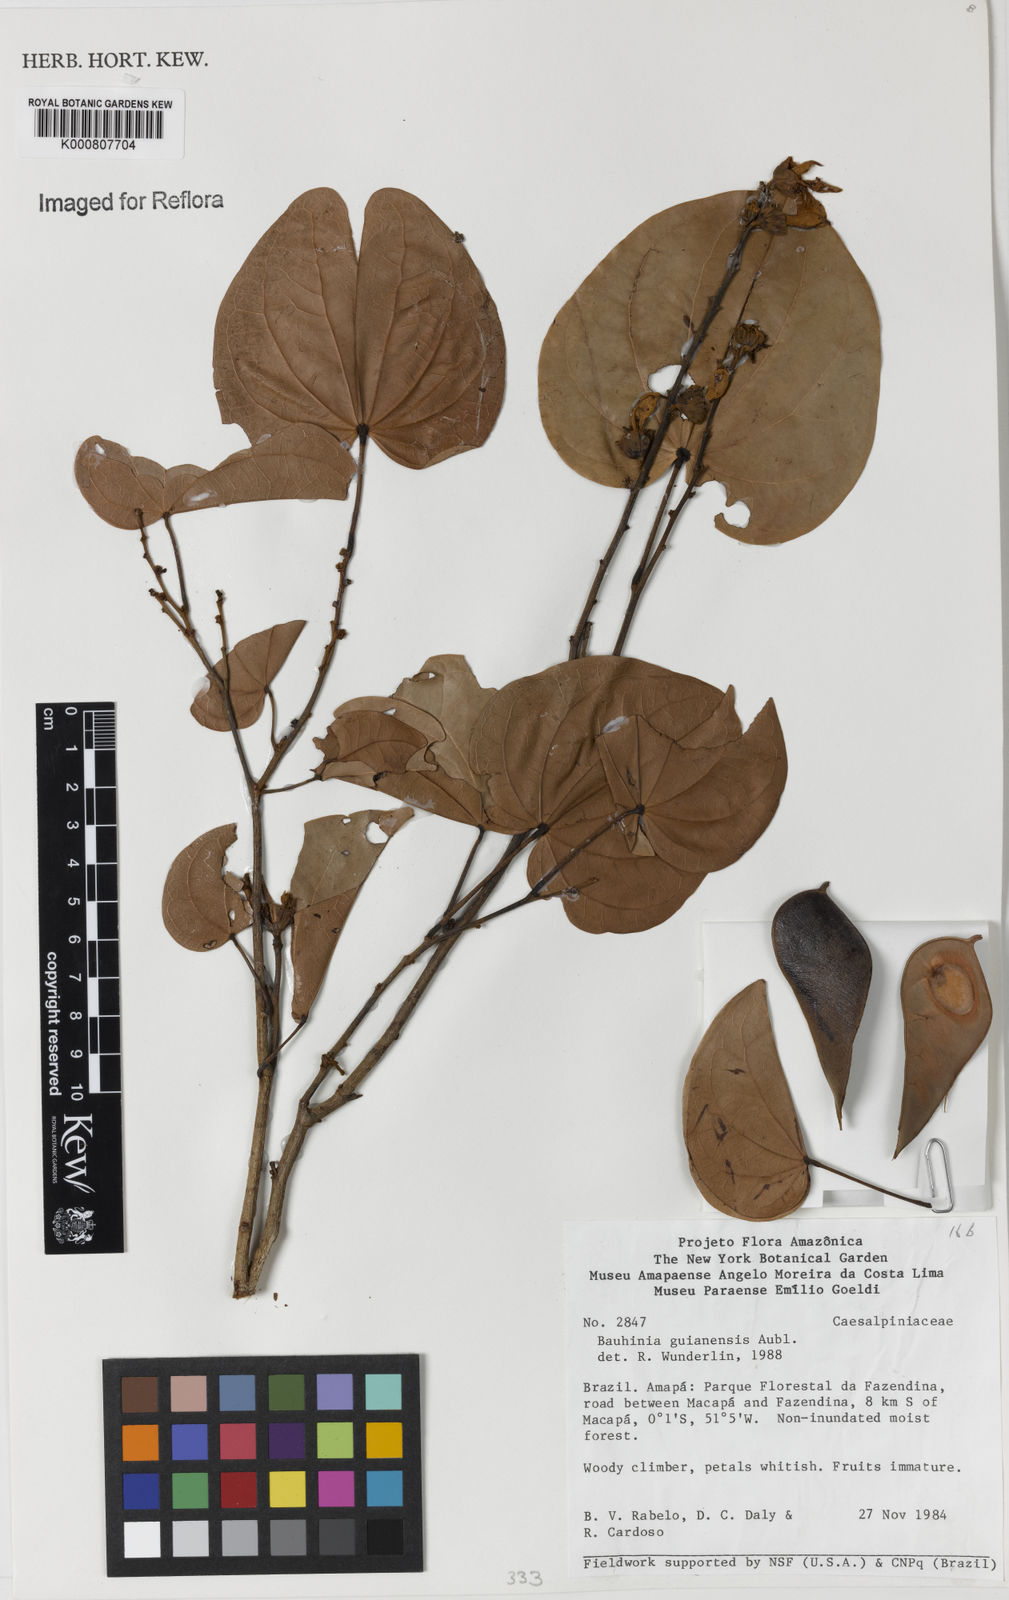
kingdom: Plantae
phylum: Tracheophyta
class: Magnoliopsida
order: Fabales
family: Fabaceae
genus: Schnella
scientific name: Schnella guianensis
